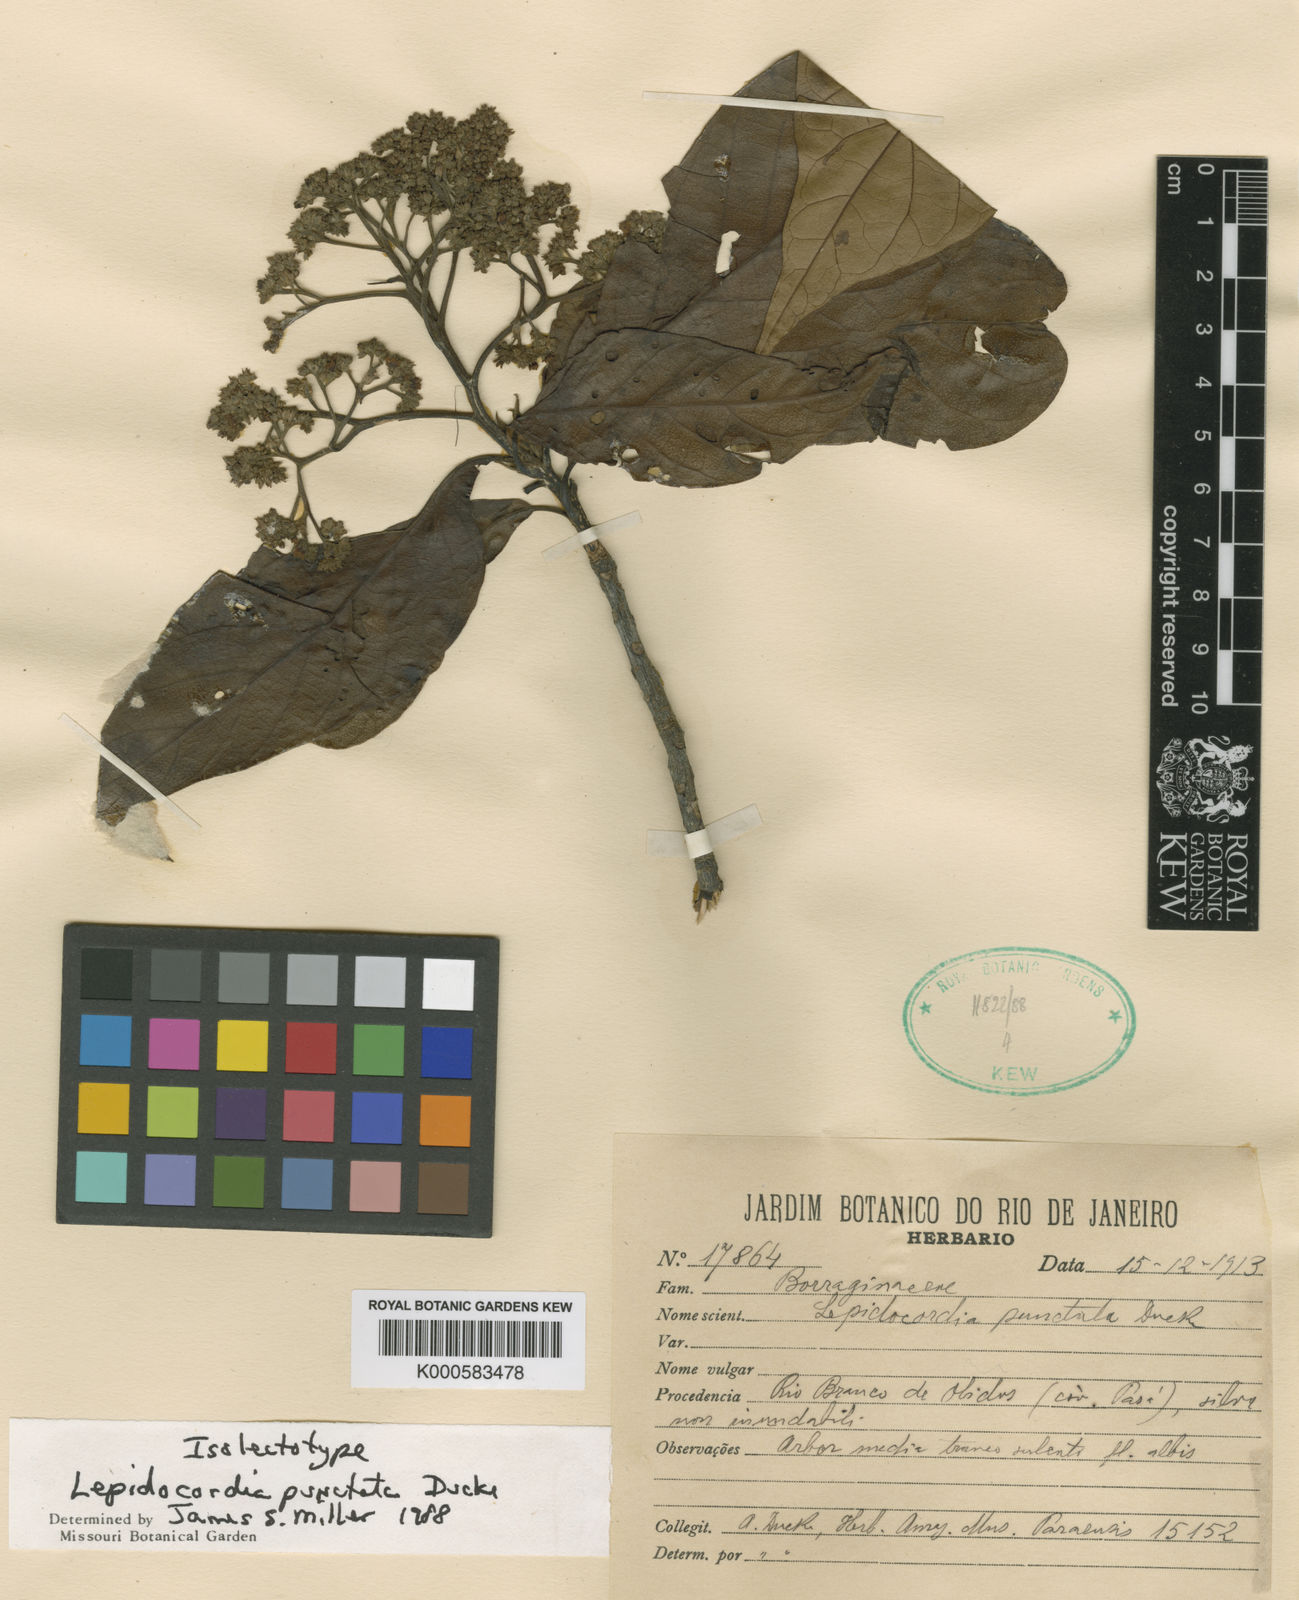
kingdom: Plantae
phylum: Tracheophyta
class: Magnoliopsida
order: Boraginales
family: Ehretiaceae
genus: Lepidocordia
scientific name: Lepidocordia punctata
